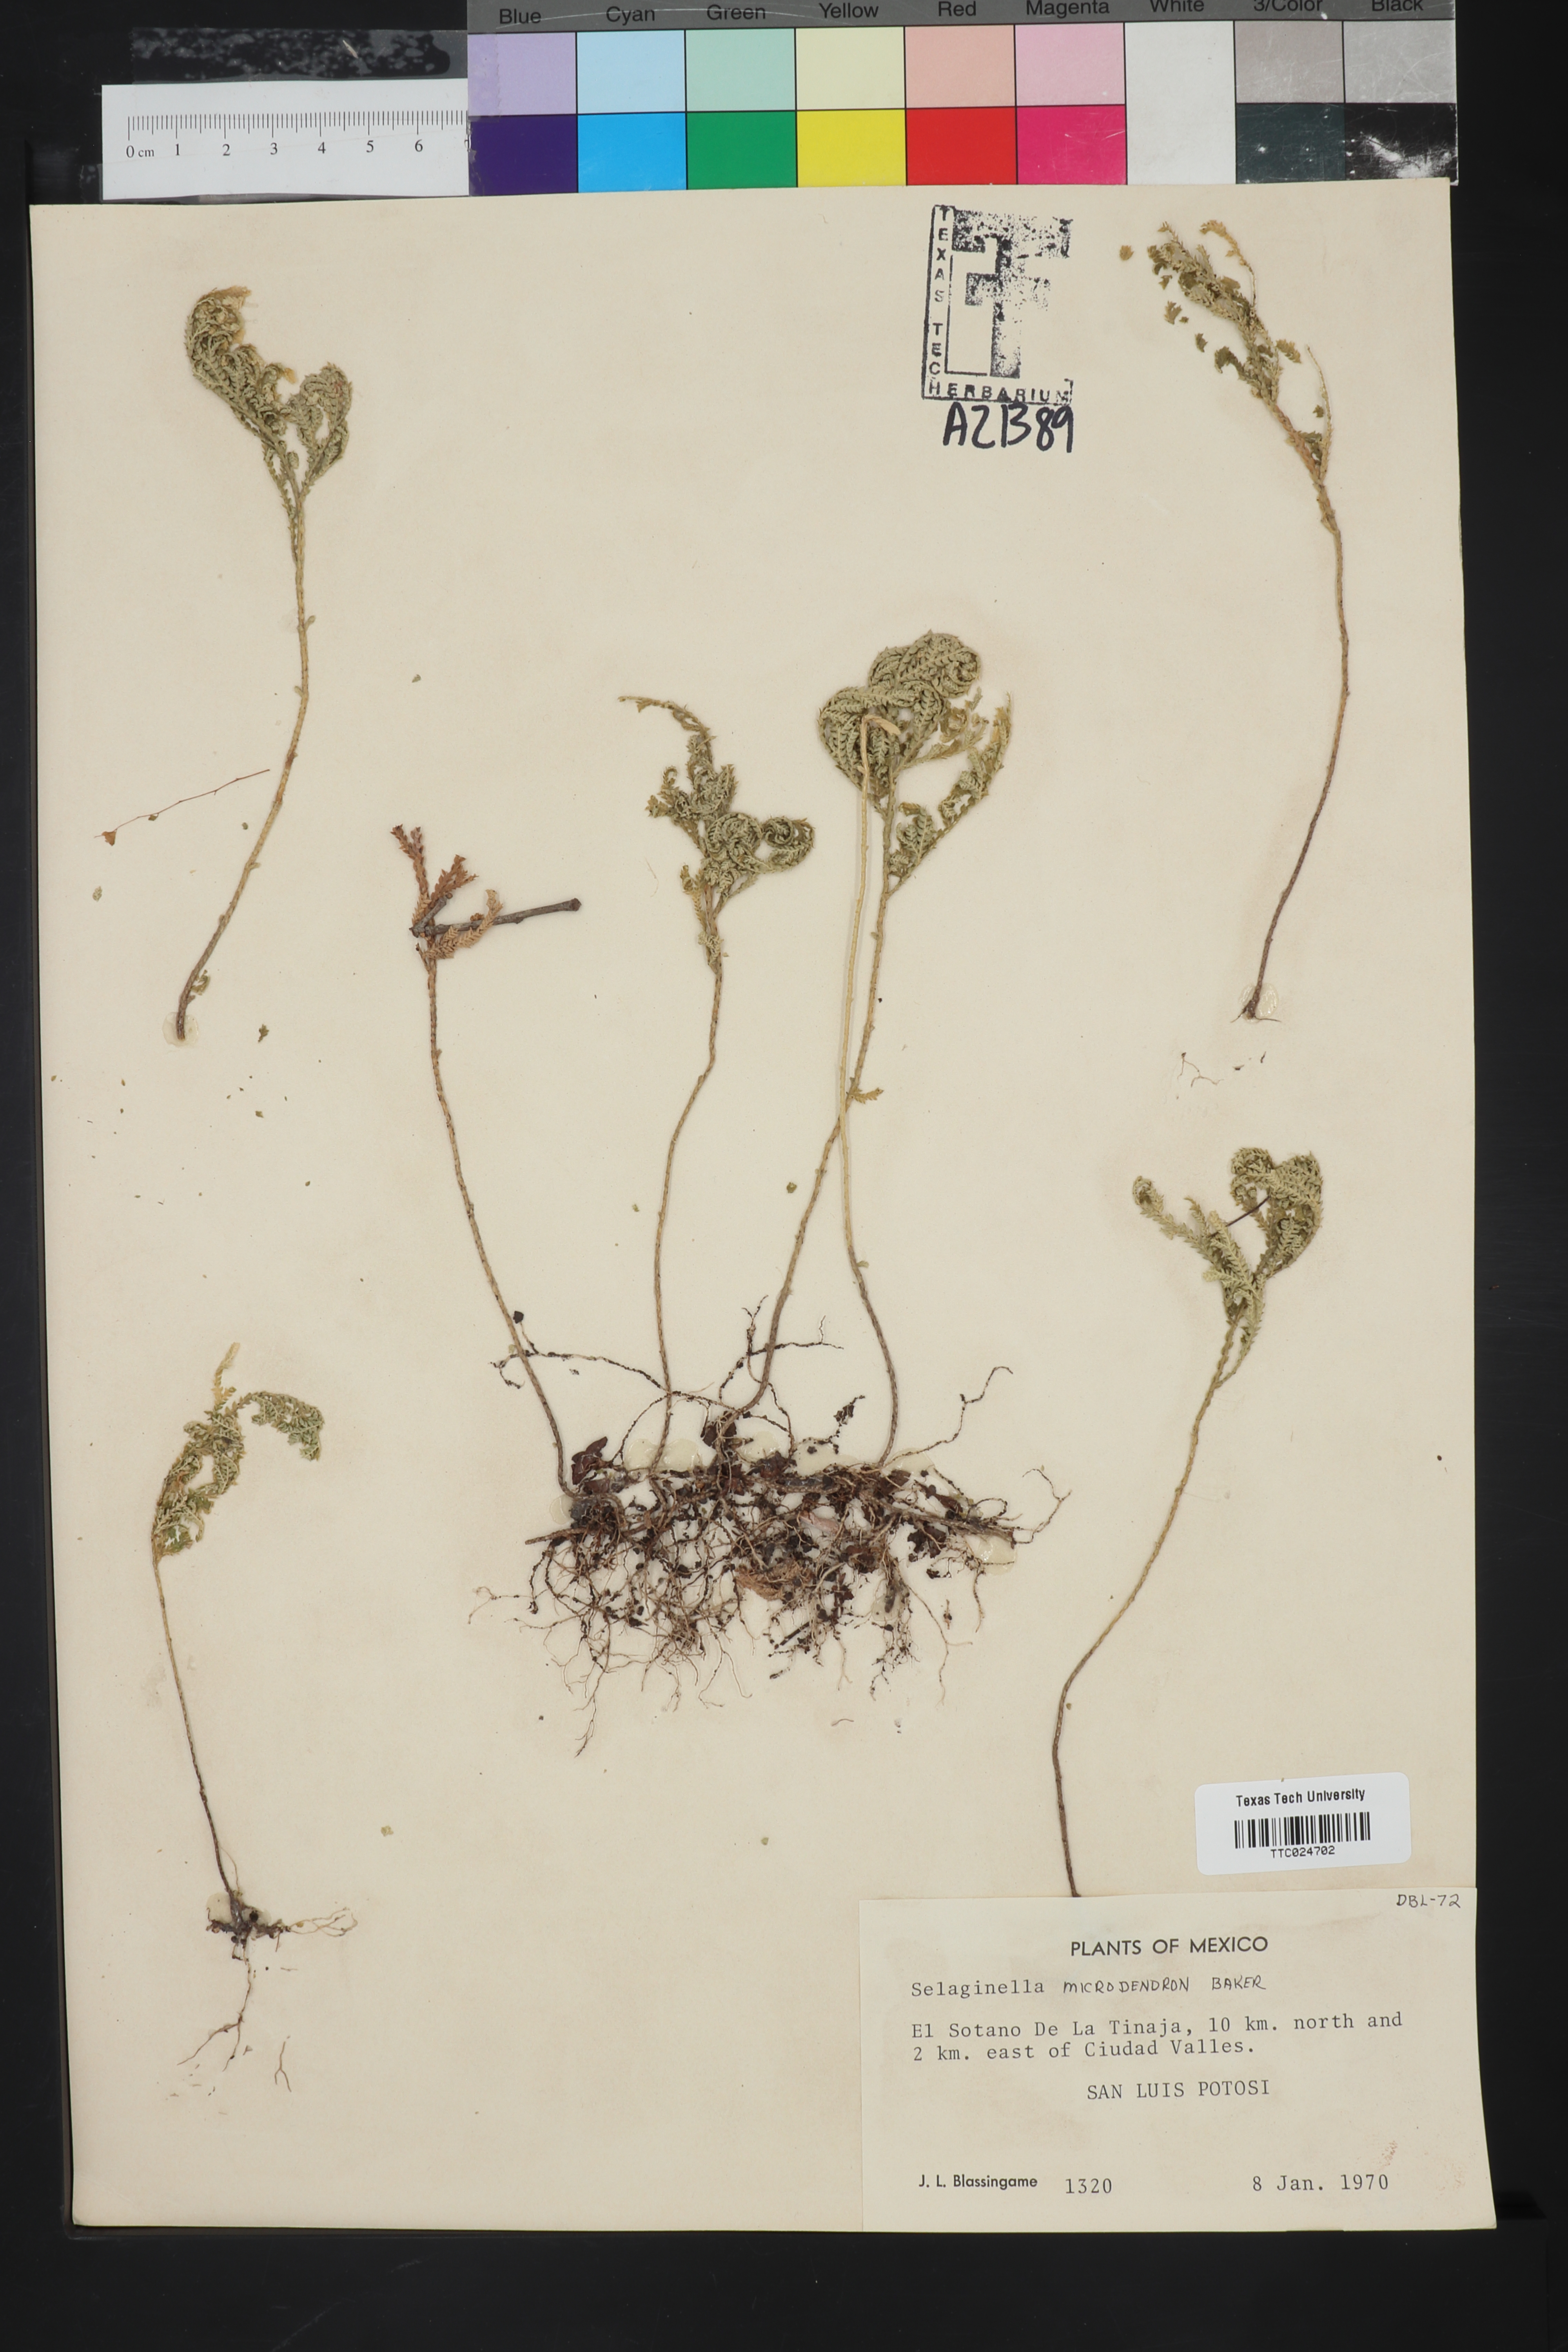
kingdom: Plantae
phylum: Tracheophyta
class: Lycopodiopsida
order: Selaginellales
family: Selaginellaceae
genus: Selaginella
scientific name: Selaginella microdendron
